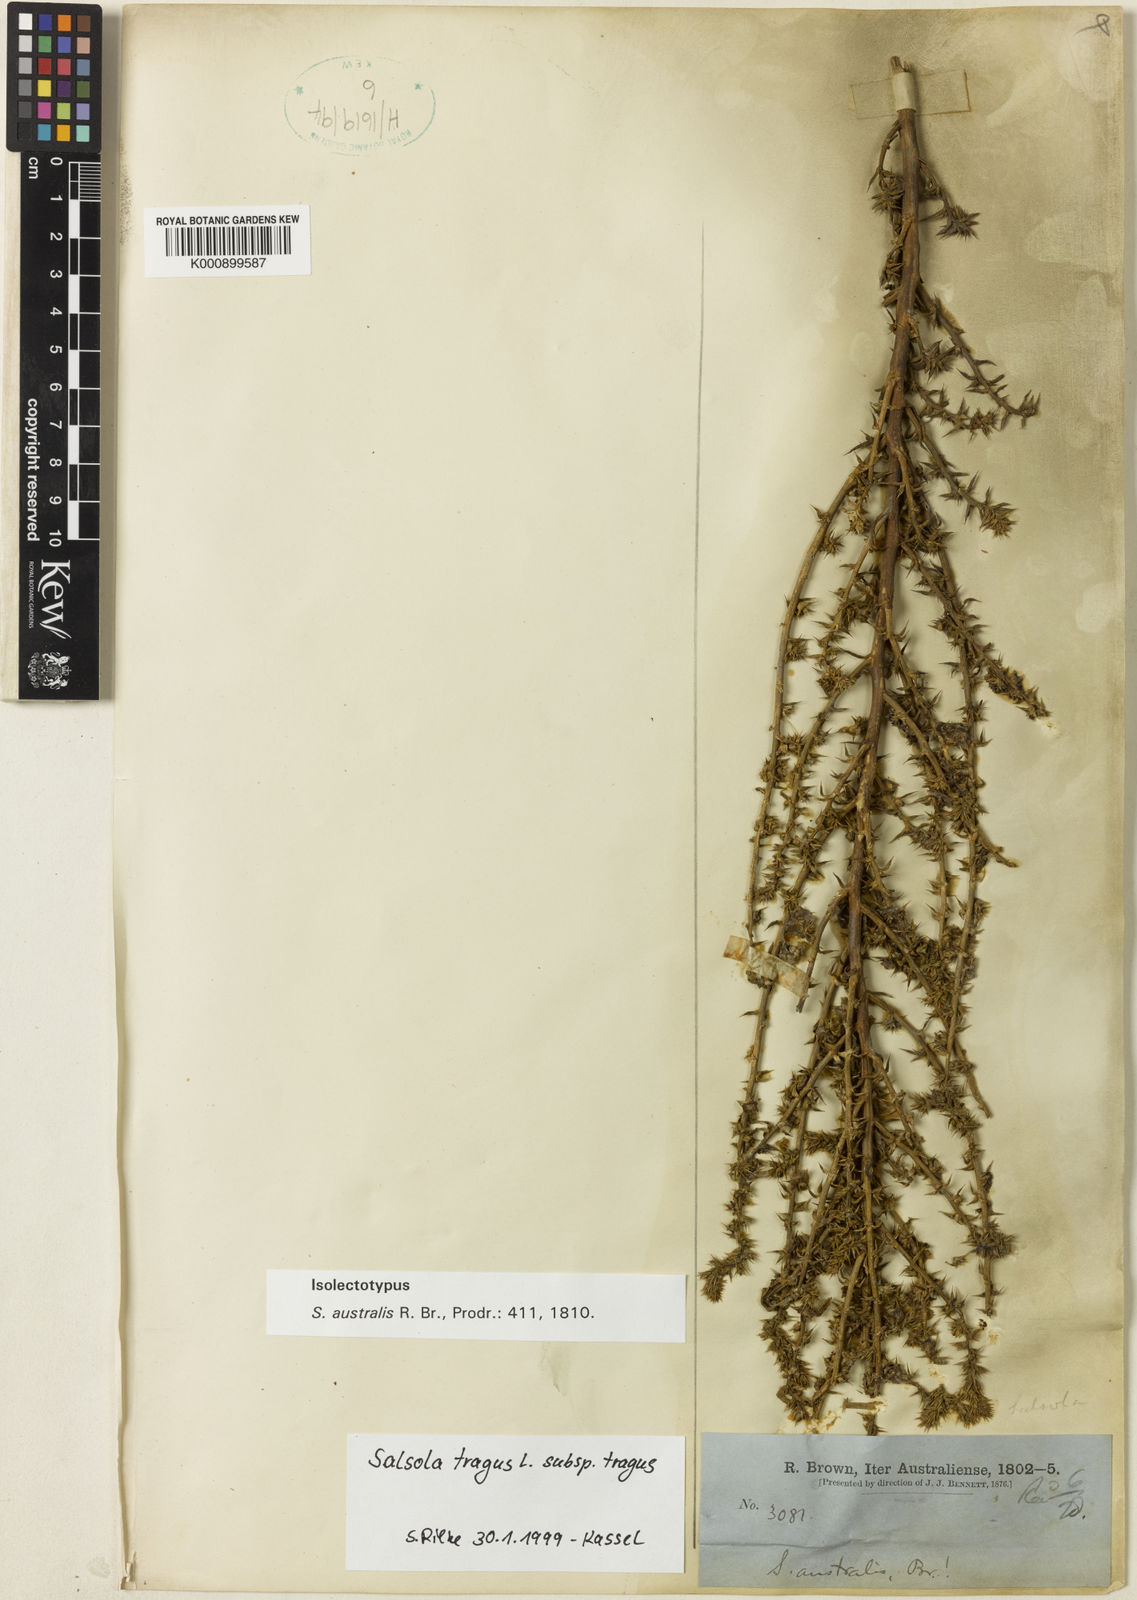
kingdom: Plantae
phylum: Tracheophyta
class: Magnoliopsida
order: Caryophyllales
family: Amaranthaceae
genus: Salsola
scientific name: Salsola kali
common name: Saltwort
